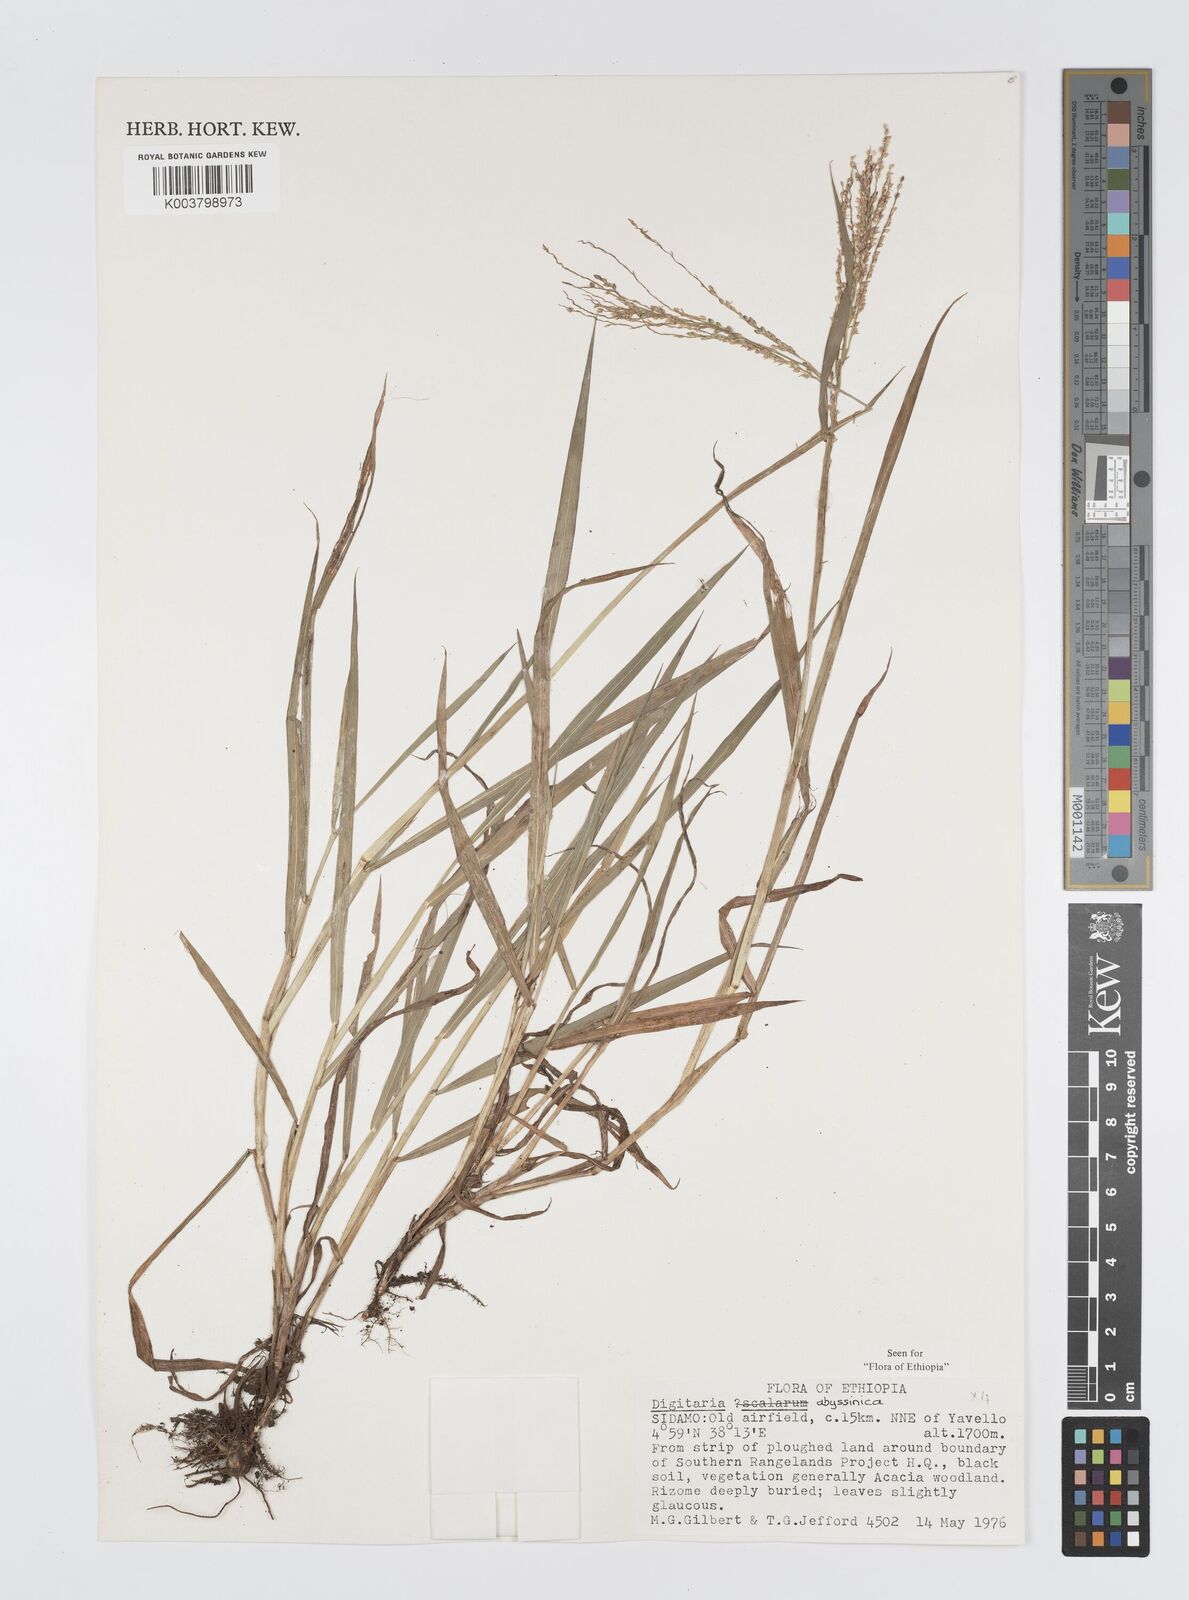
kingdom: Plantae
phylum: Tracheophyta
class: Liliopsida
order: Poales
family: Poaceae
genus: Digitaria
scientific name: Digitaria abyssinica
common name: African couchgrass
